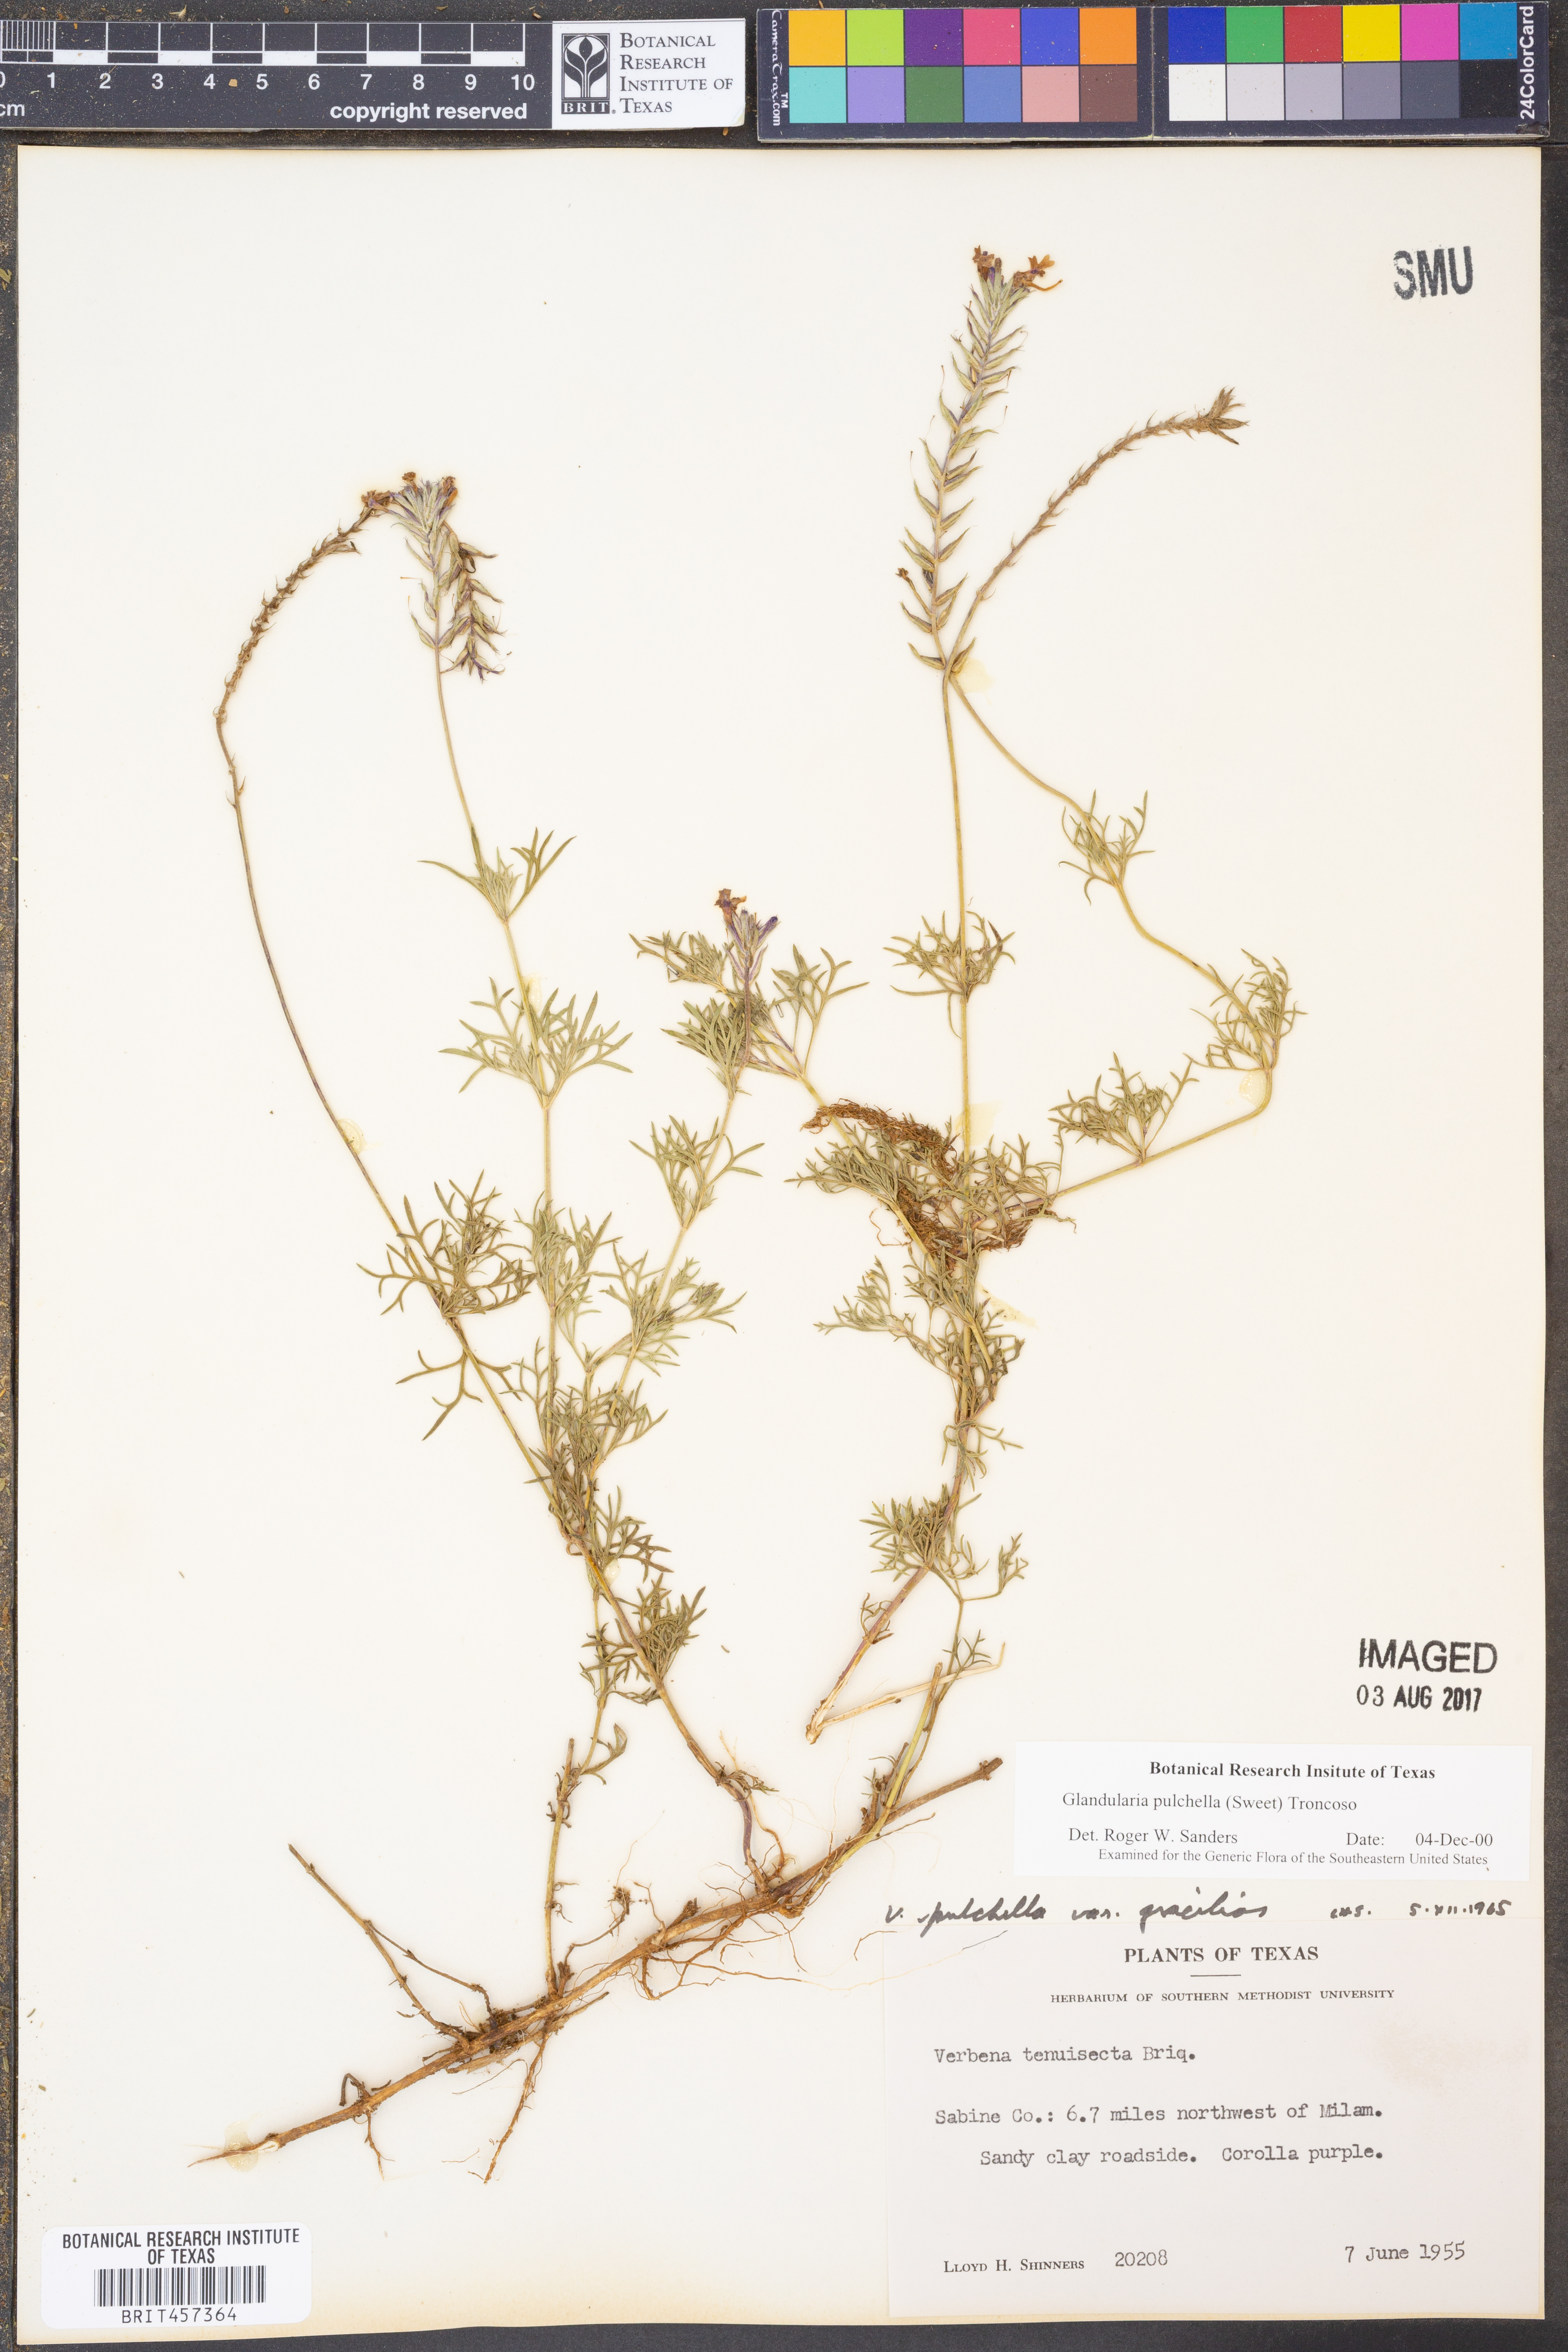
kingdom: Plantae
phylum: Tracheophyta
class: Magnoliopsida
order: Lamiales
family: Verbenaceae
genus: Verbena
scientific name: Verbena tenera
